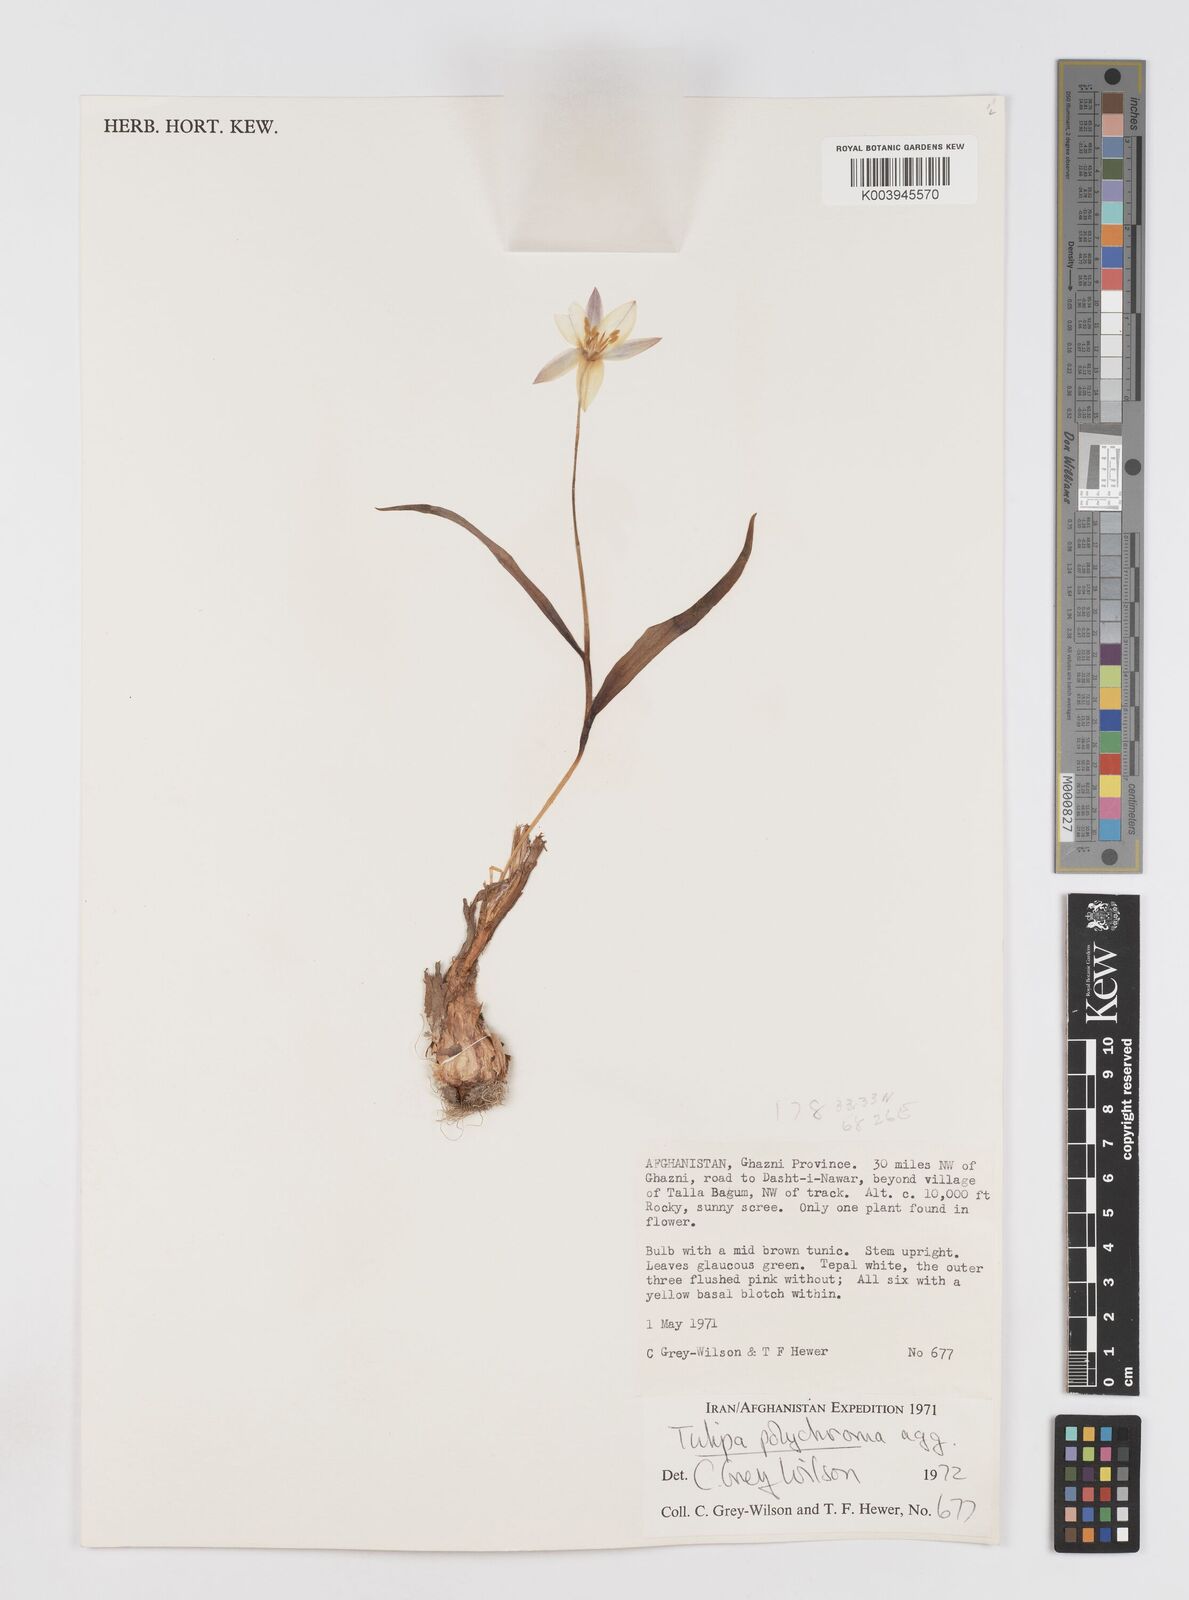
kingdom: Plantae
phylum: Tracheophyta
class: Liliopsida
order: Liliales
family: Liliaceae
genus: Tulipa
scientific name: Tulipa biflora
